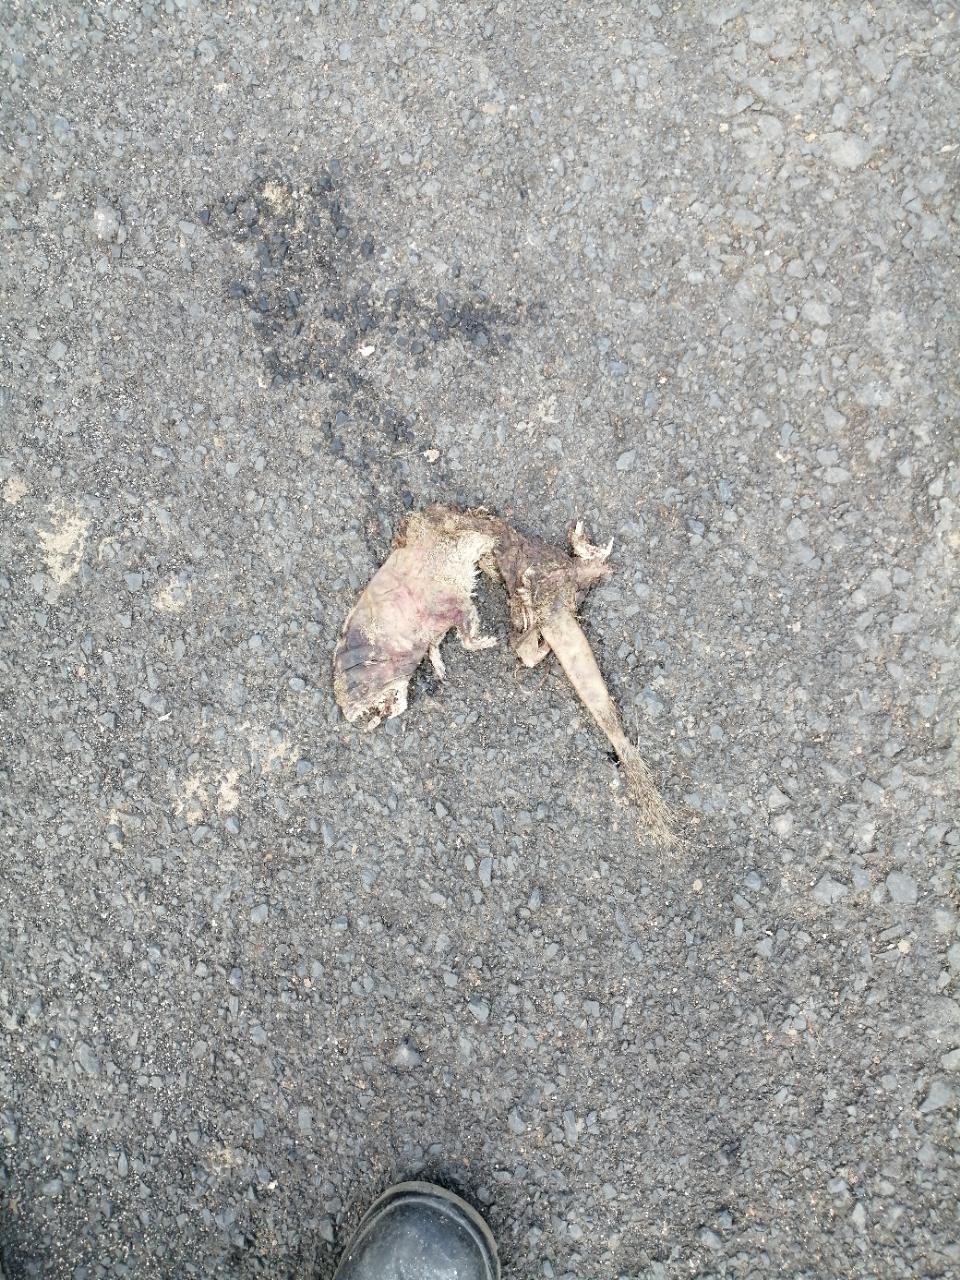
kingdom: Animalia
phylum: Chordata
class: Mammalia
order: Carnivora
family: Herpestidae
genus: Herpestes
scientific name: Herpestes edwardsi
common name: Indian gray mongoose
